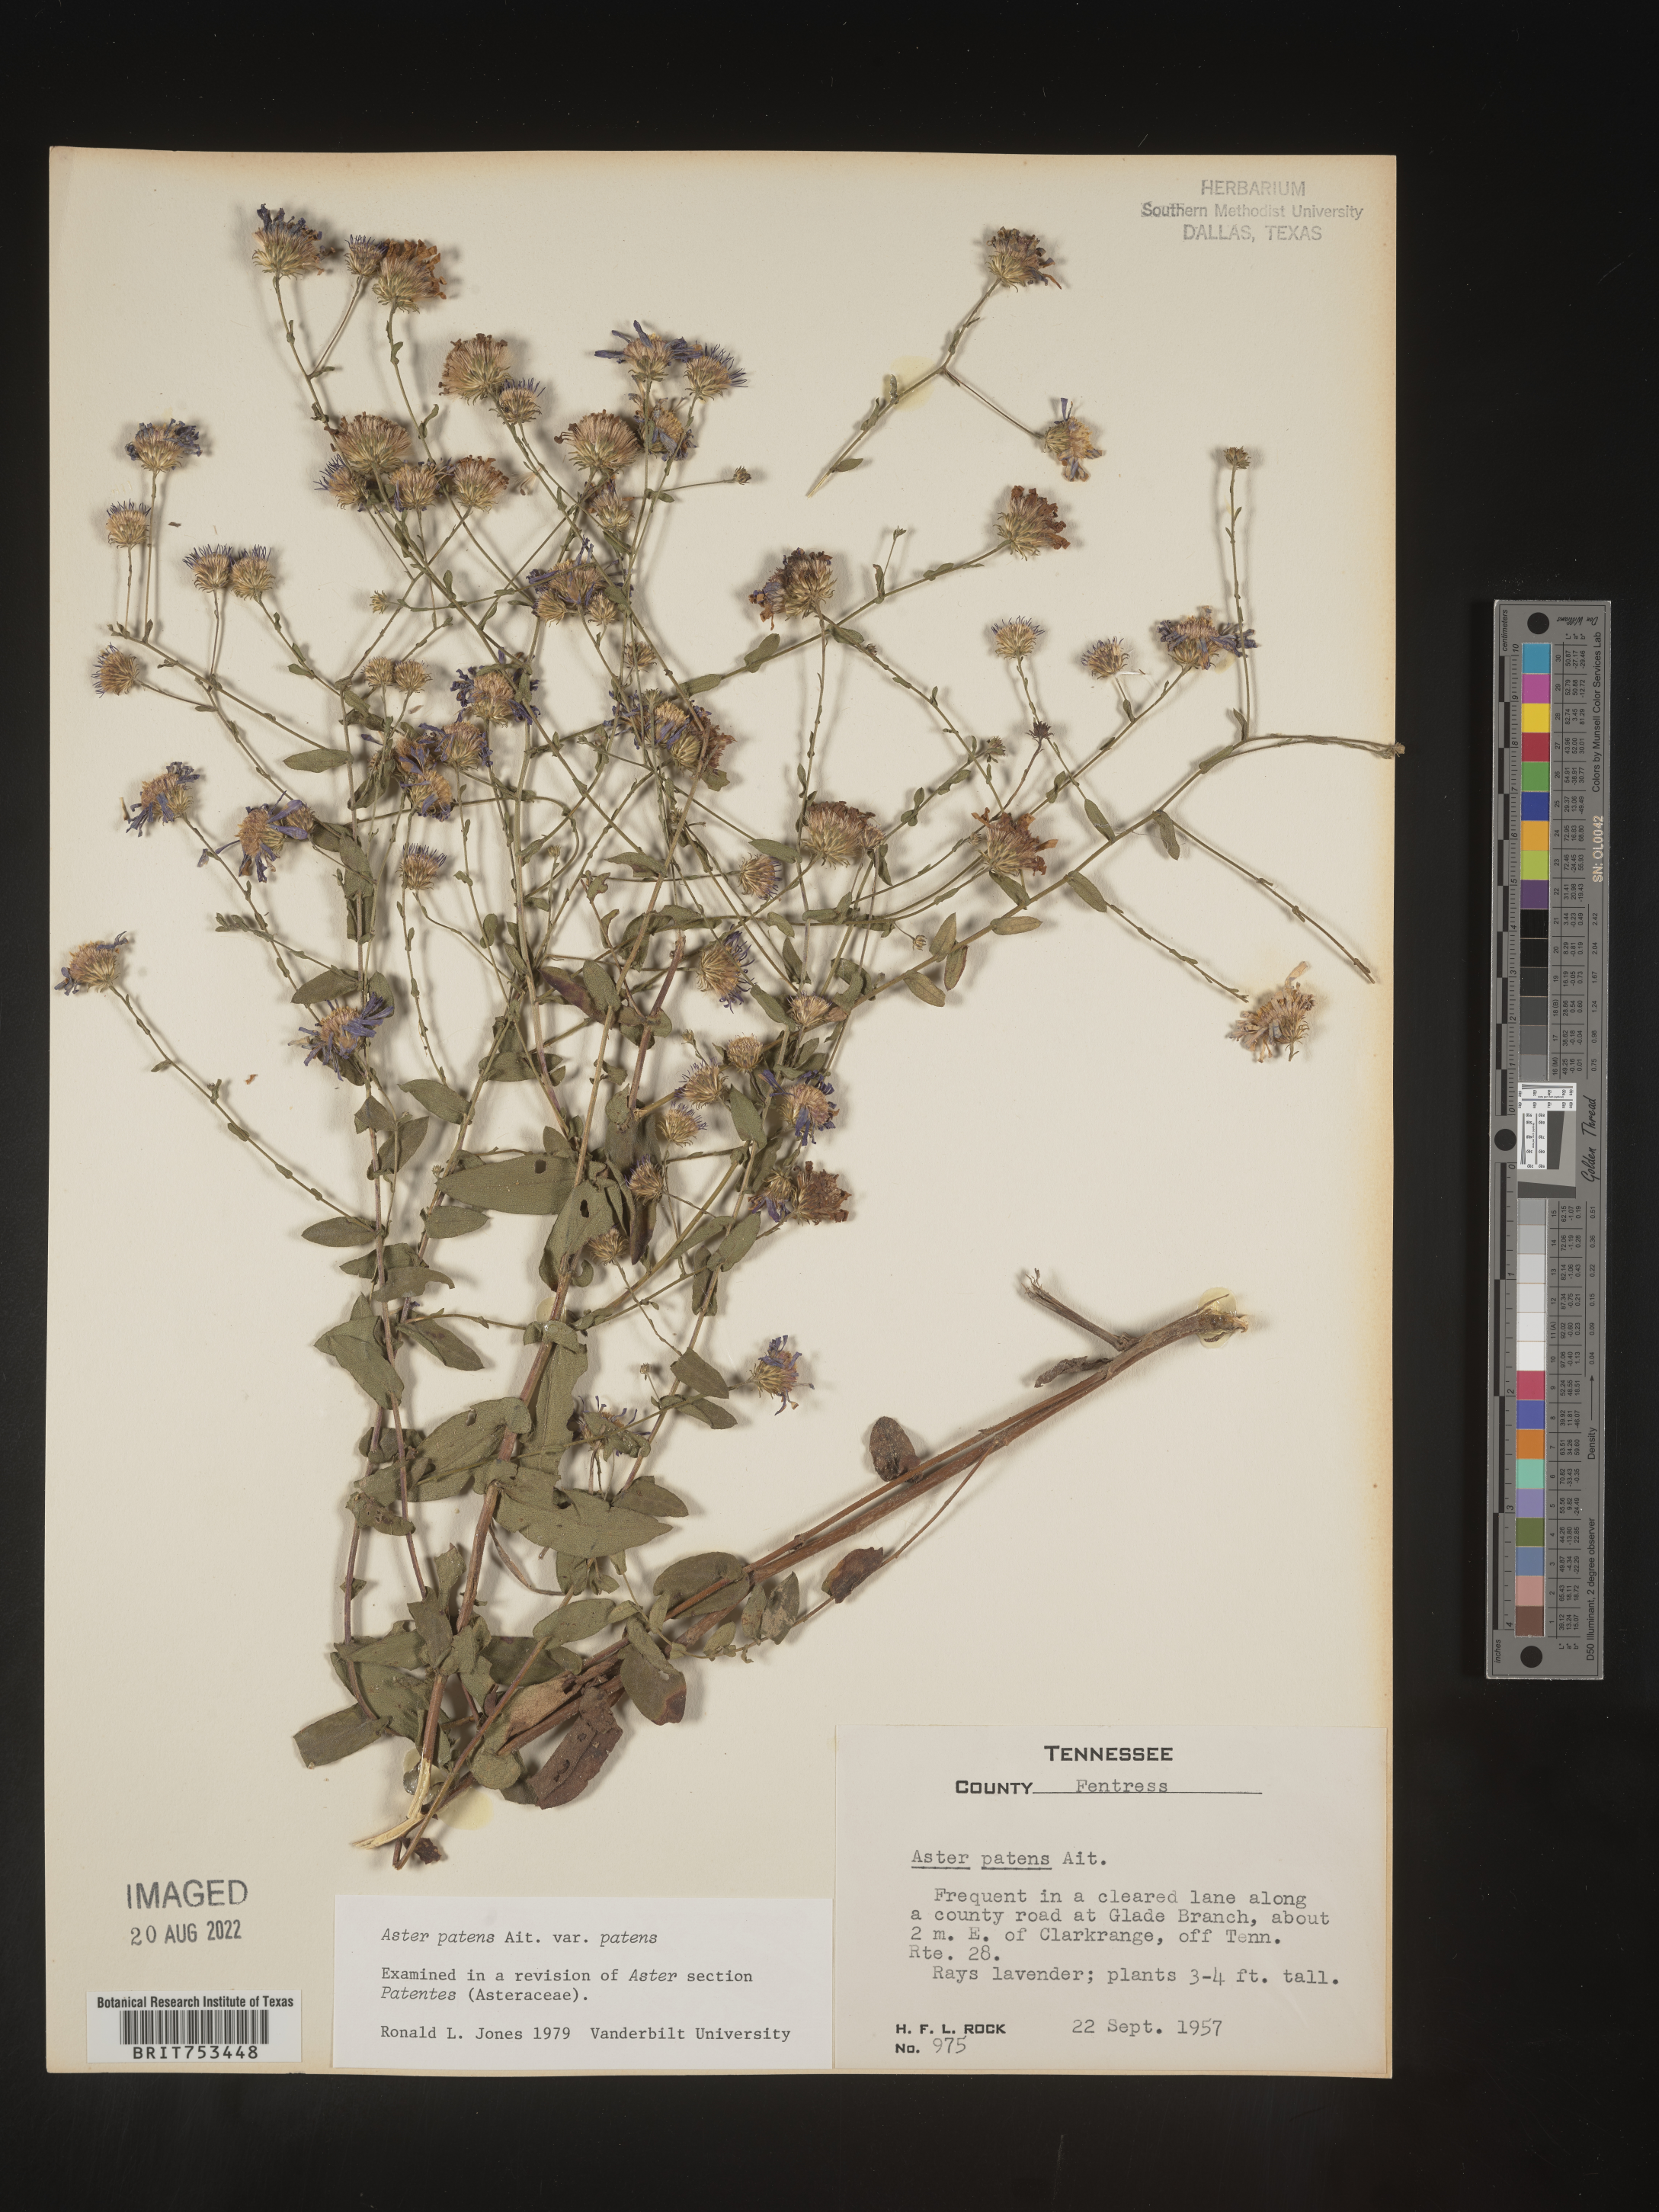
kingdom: Plantae
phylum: Tracheophyta
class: Magnoliopsida
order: Asterales
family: Asteraceae
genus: Symphyotrichum
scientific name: Symphyotrichum patens
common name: Late purple aster
